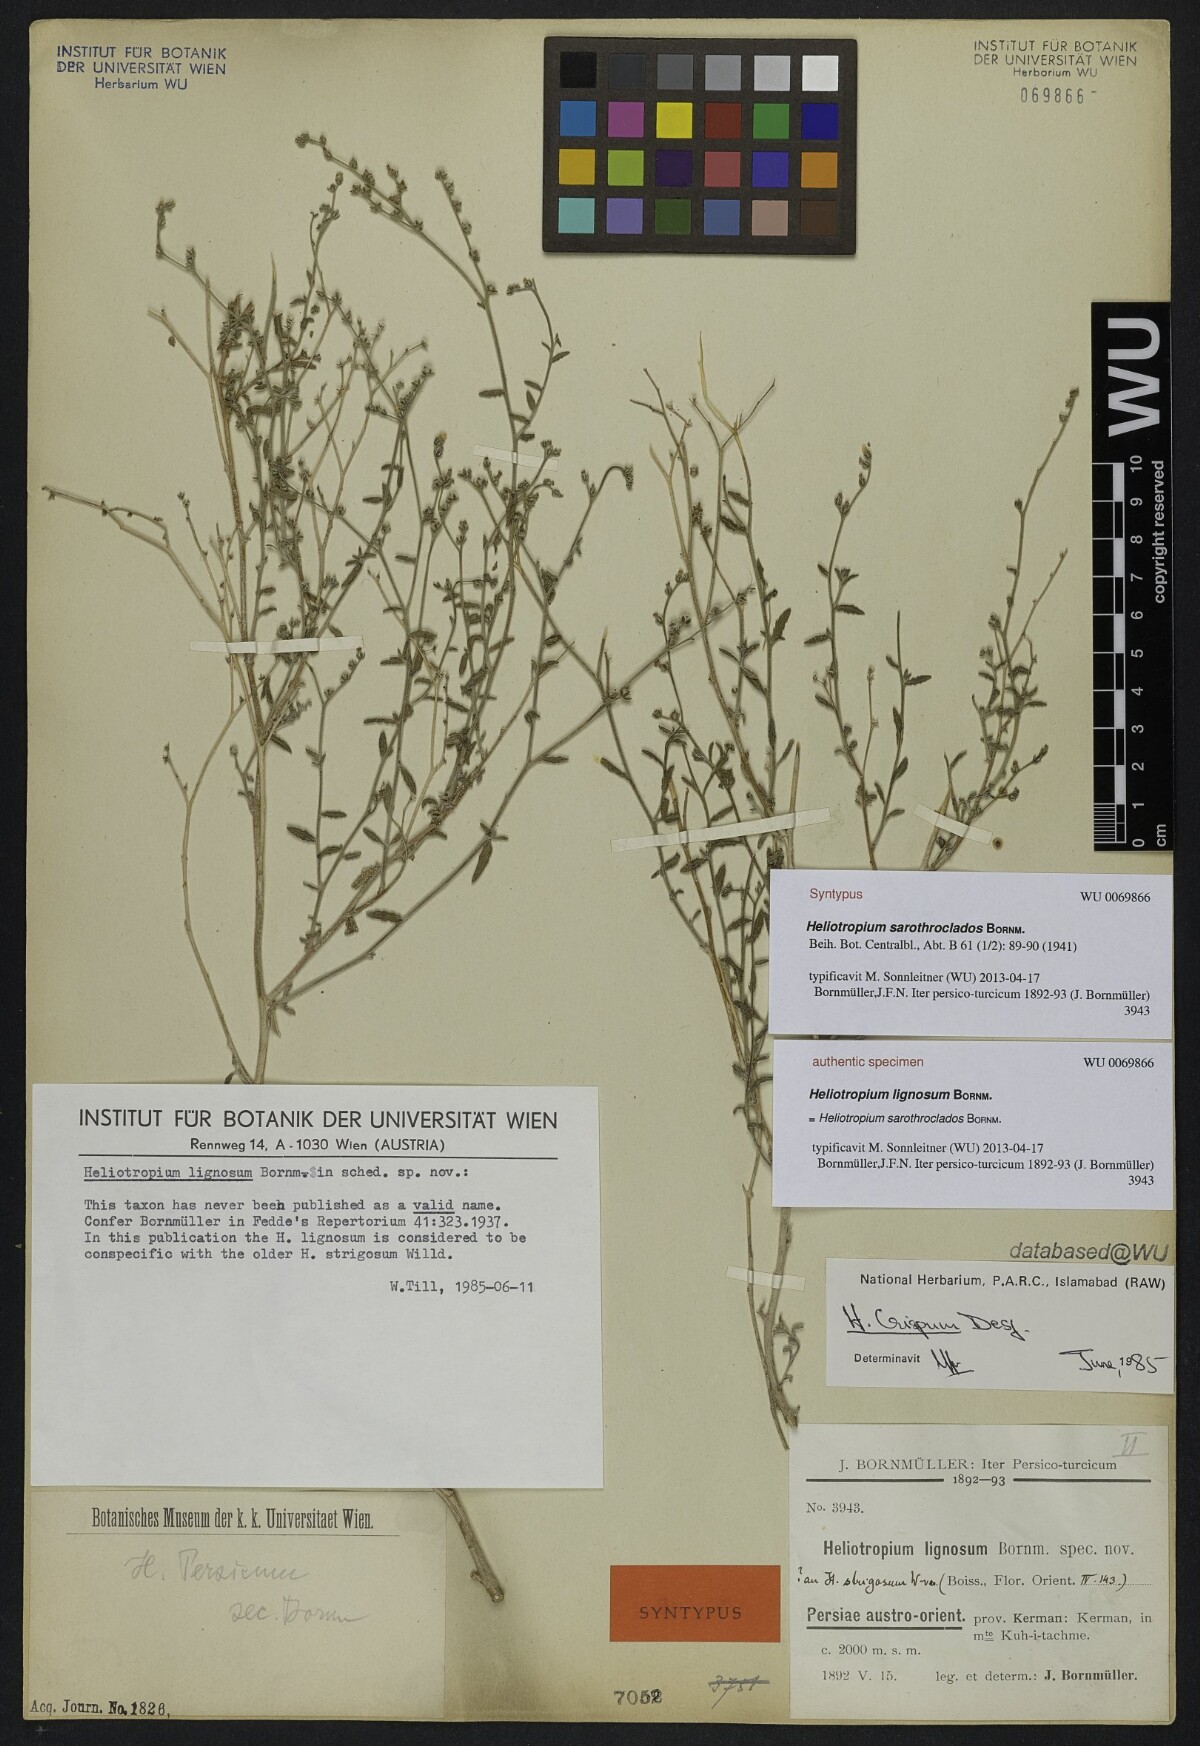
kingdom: Plantae
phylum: Tracheophyta
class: Magnoliopsida
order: Boraginales
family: Heliotropiaceae
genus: Heliotropium
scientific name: Heliotropium ramosissimum
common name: Wavy heliotrope
